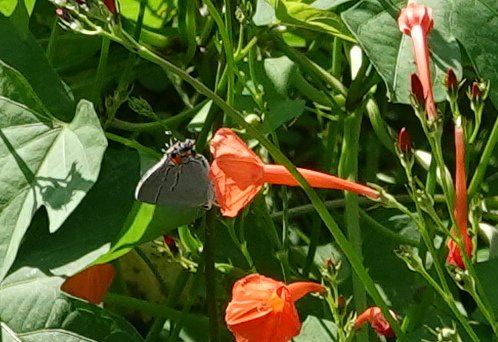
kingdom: Animalia
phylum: Arthropoda
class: Insecta
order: Lepidoptera
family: Lycaenidae
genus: Strymon
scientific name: Strymon melinus
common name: Gray Hairstreak
